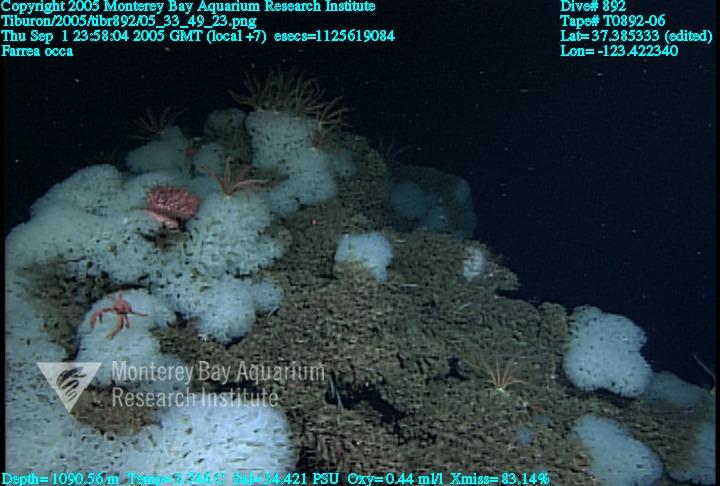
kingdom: Animalia
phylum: Porifera
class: Hexactinellida
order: Sceptrulophora
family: Farreidae
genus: Farrea
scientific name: Farrea occa
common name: Reversed glass sponge
